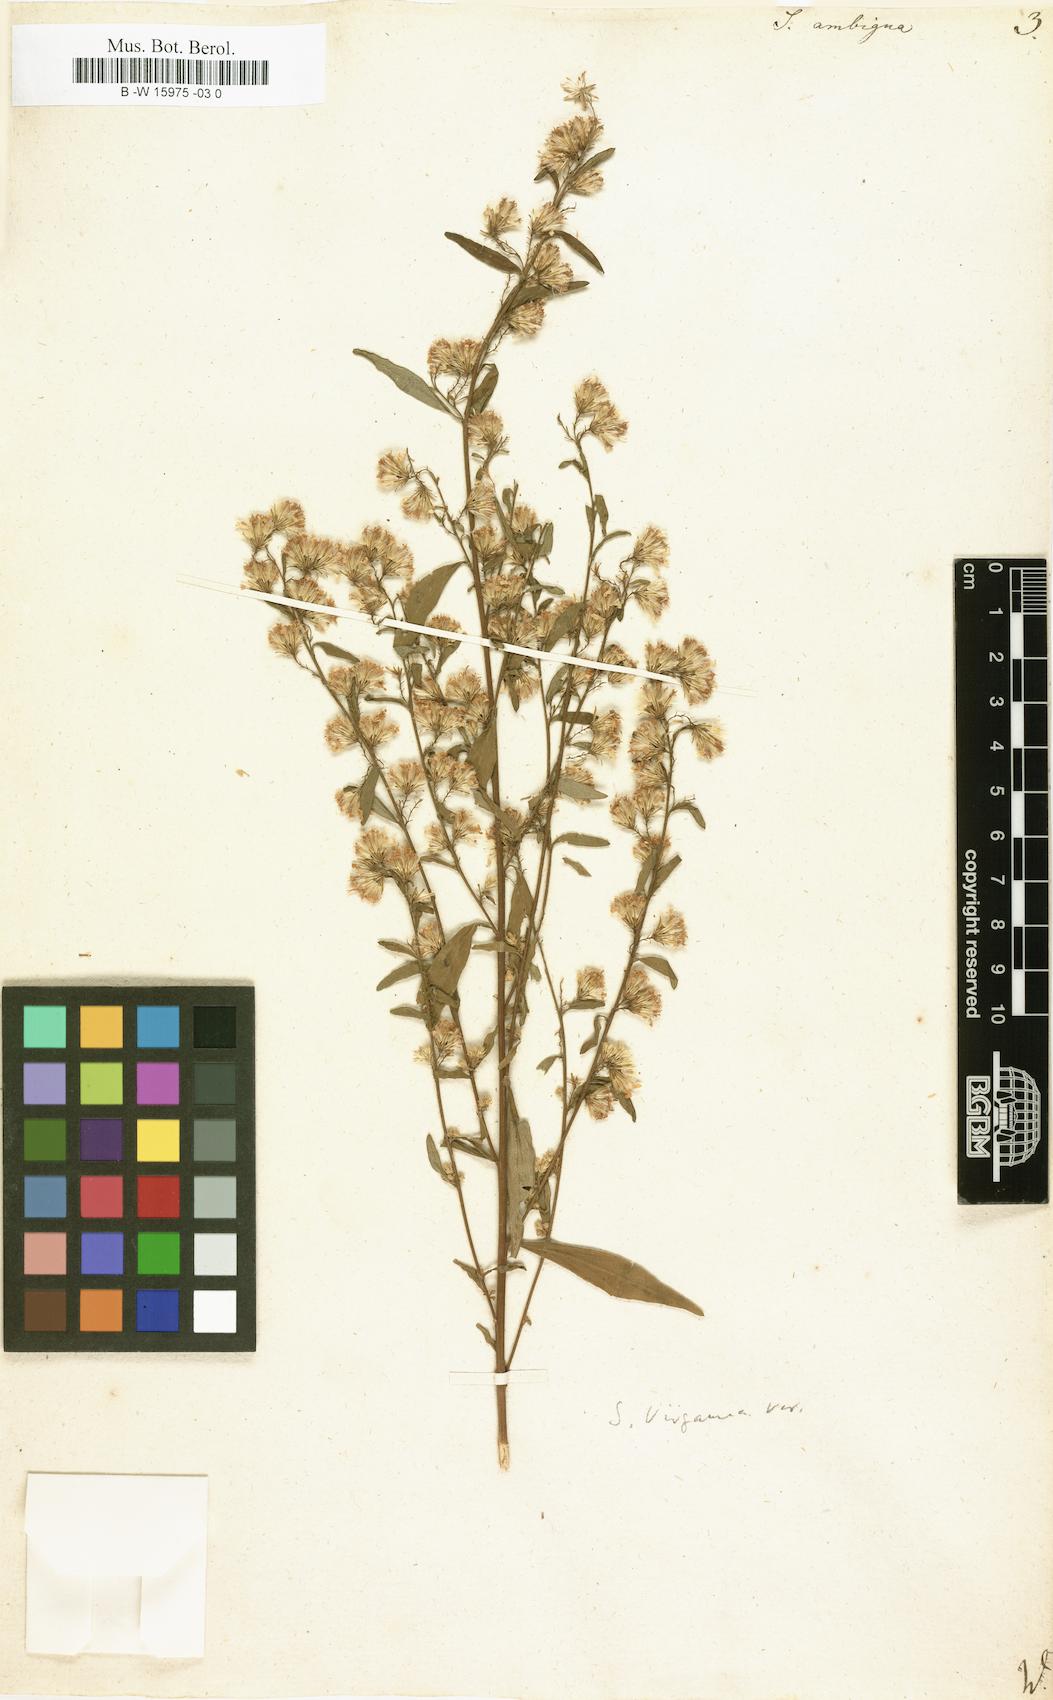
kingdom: Plantae
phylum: Tracheophyta
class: Magnoliopsida
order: Asterales
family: Asteraceae
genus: Solidago
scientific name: Solidago virgaurea
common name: Goldenrod
